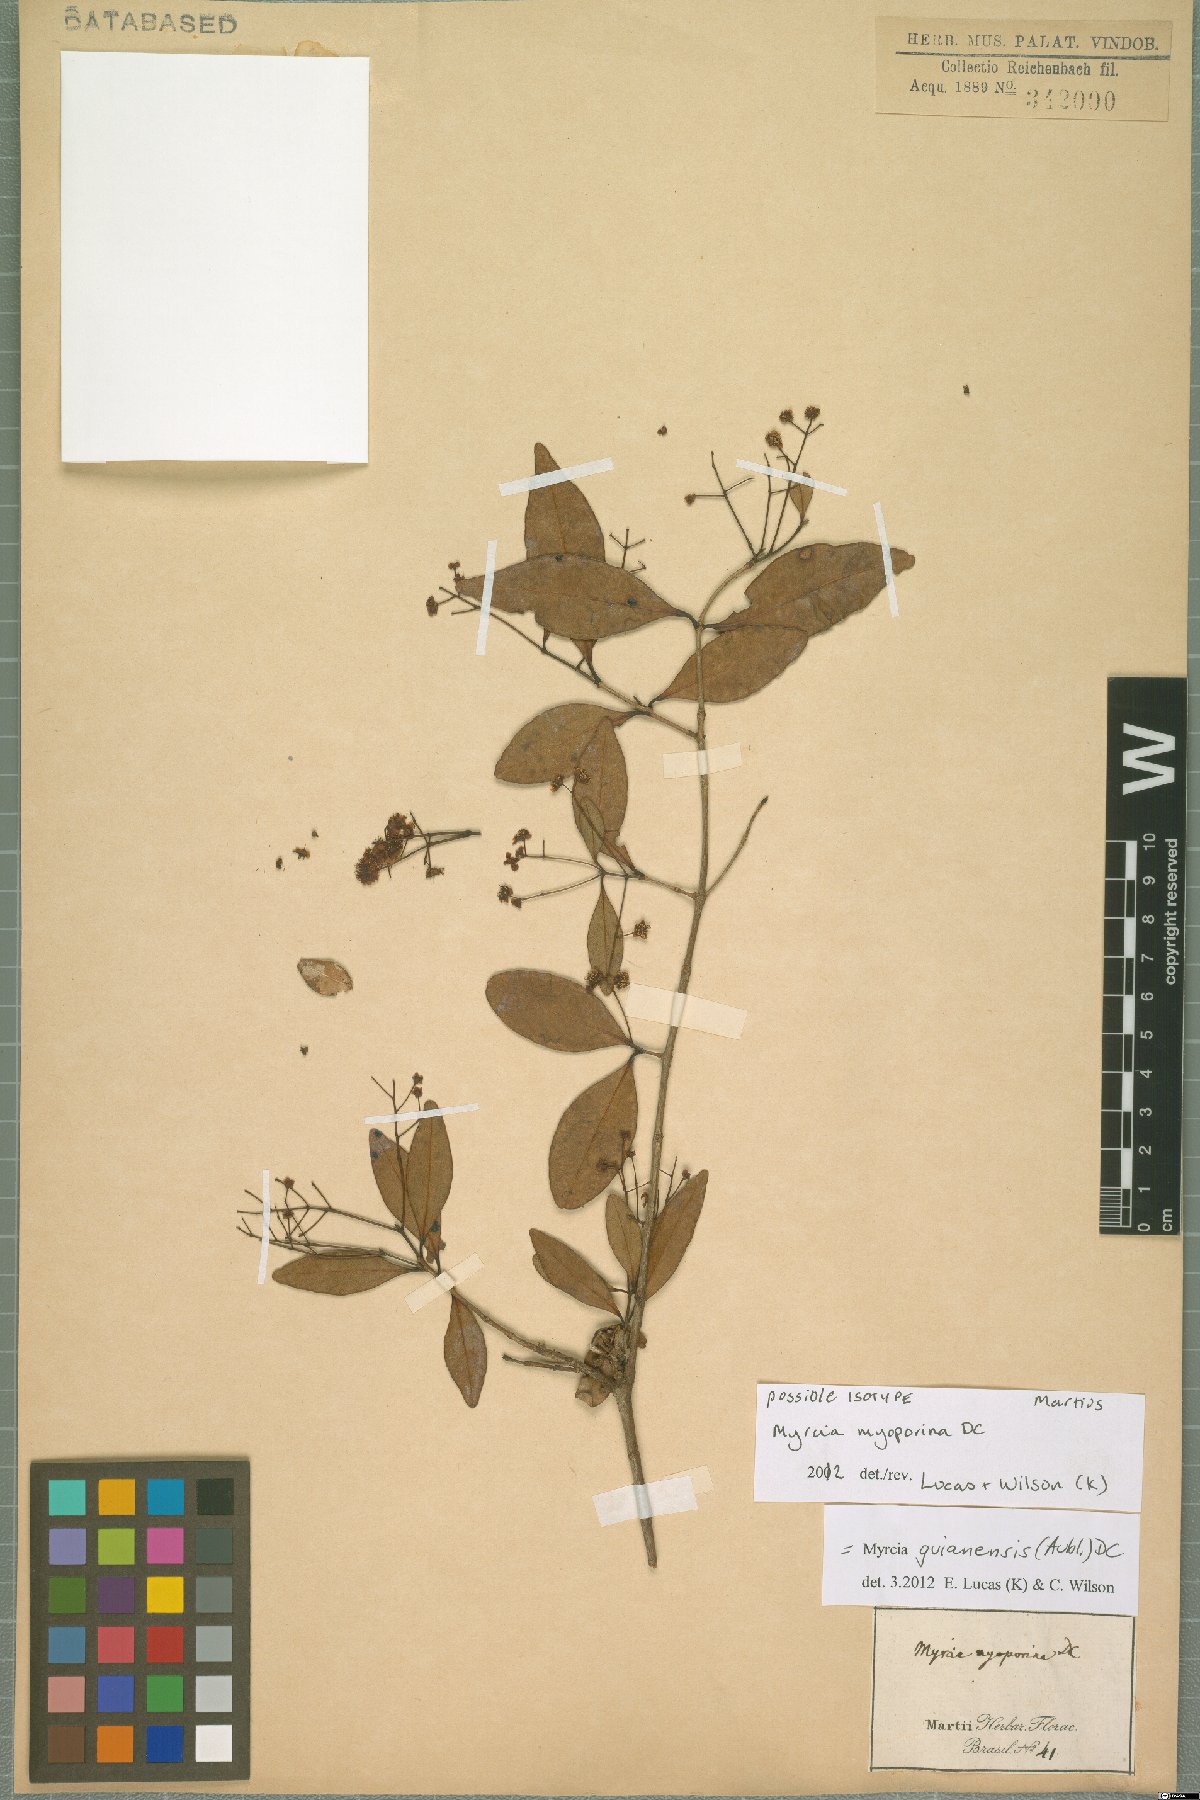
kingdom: Plantae
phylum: Tracheophyta
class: Magnoliopsida
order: Myrtales
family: Myrtaceae
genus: Myrcia
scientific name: Myrcia guianensis
